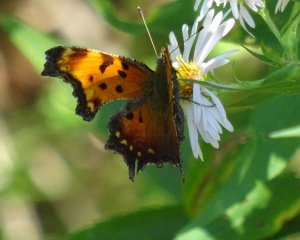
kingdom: Animalia
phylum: Arthropoda
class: Insecta
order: Lepidoptera
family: Nymphalidae
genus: Polygonia
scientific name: Polygonia progne
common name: Gray Comma
